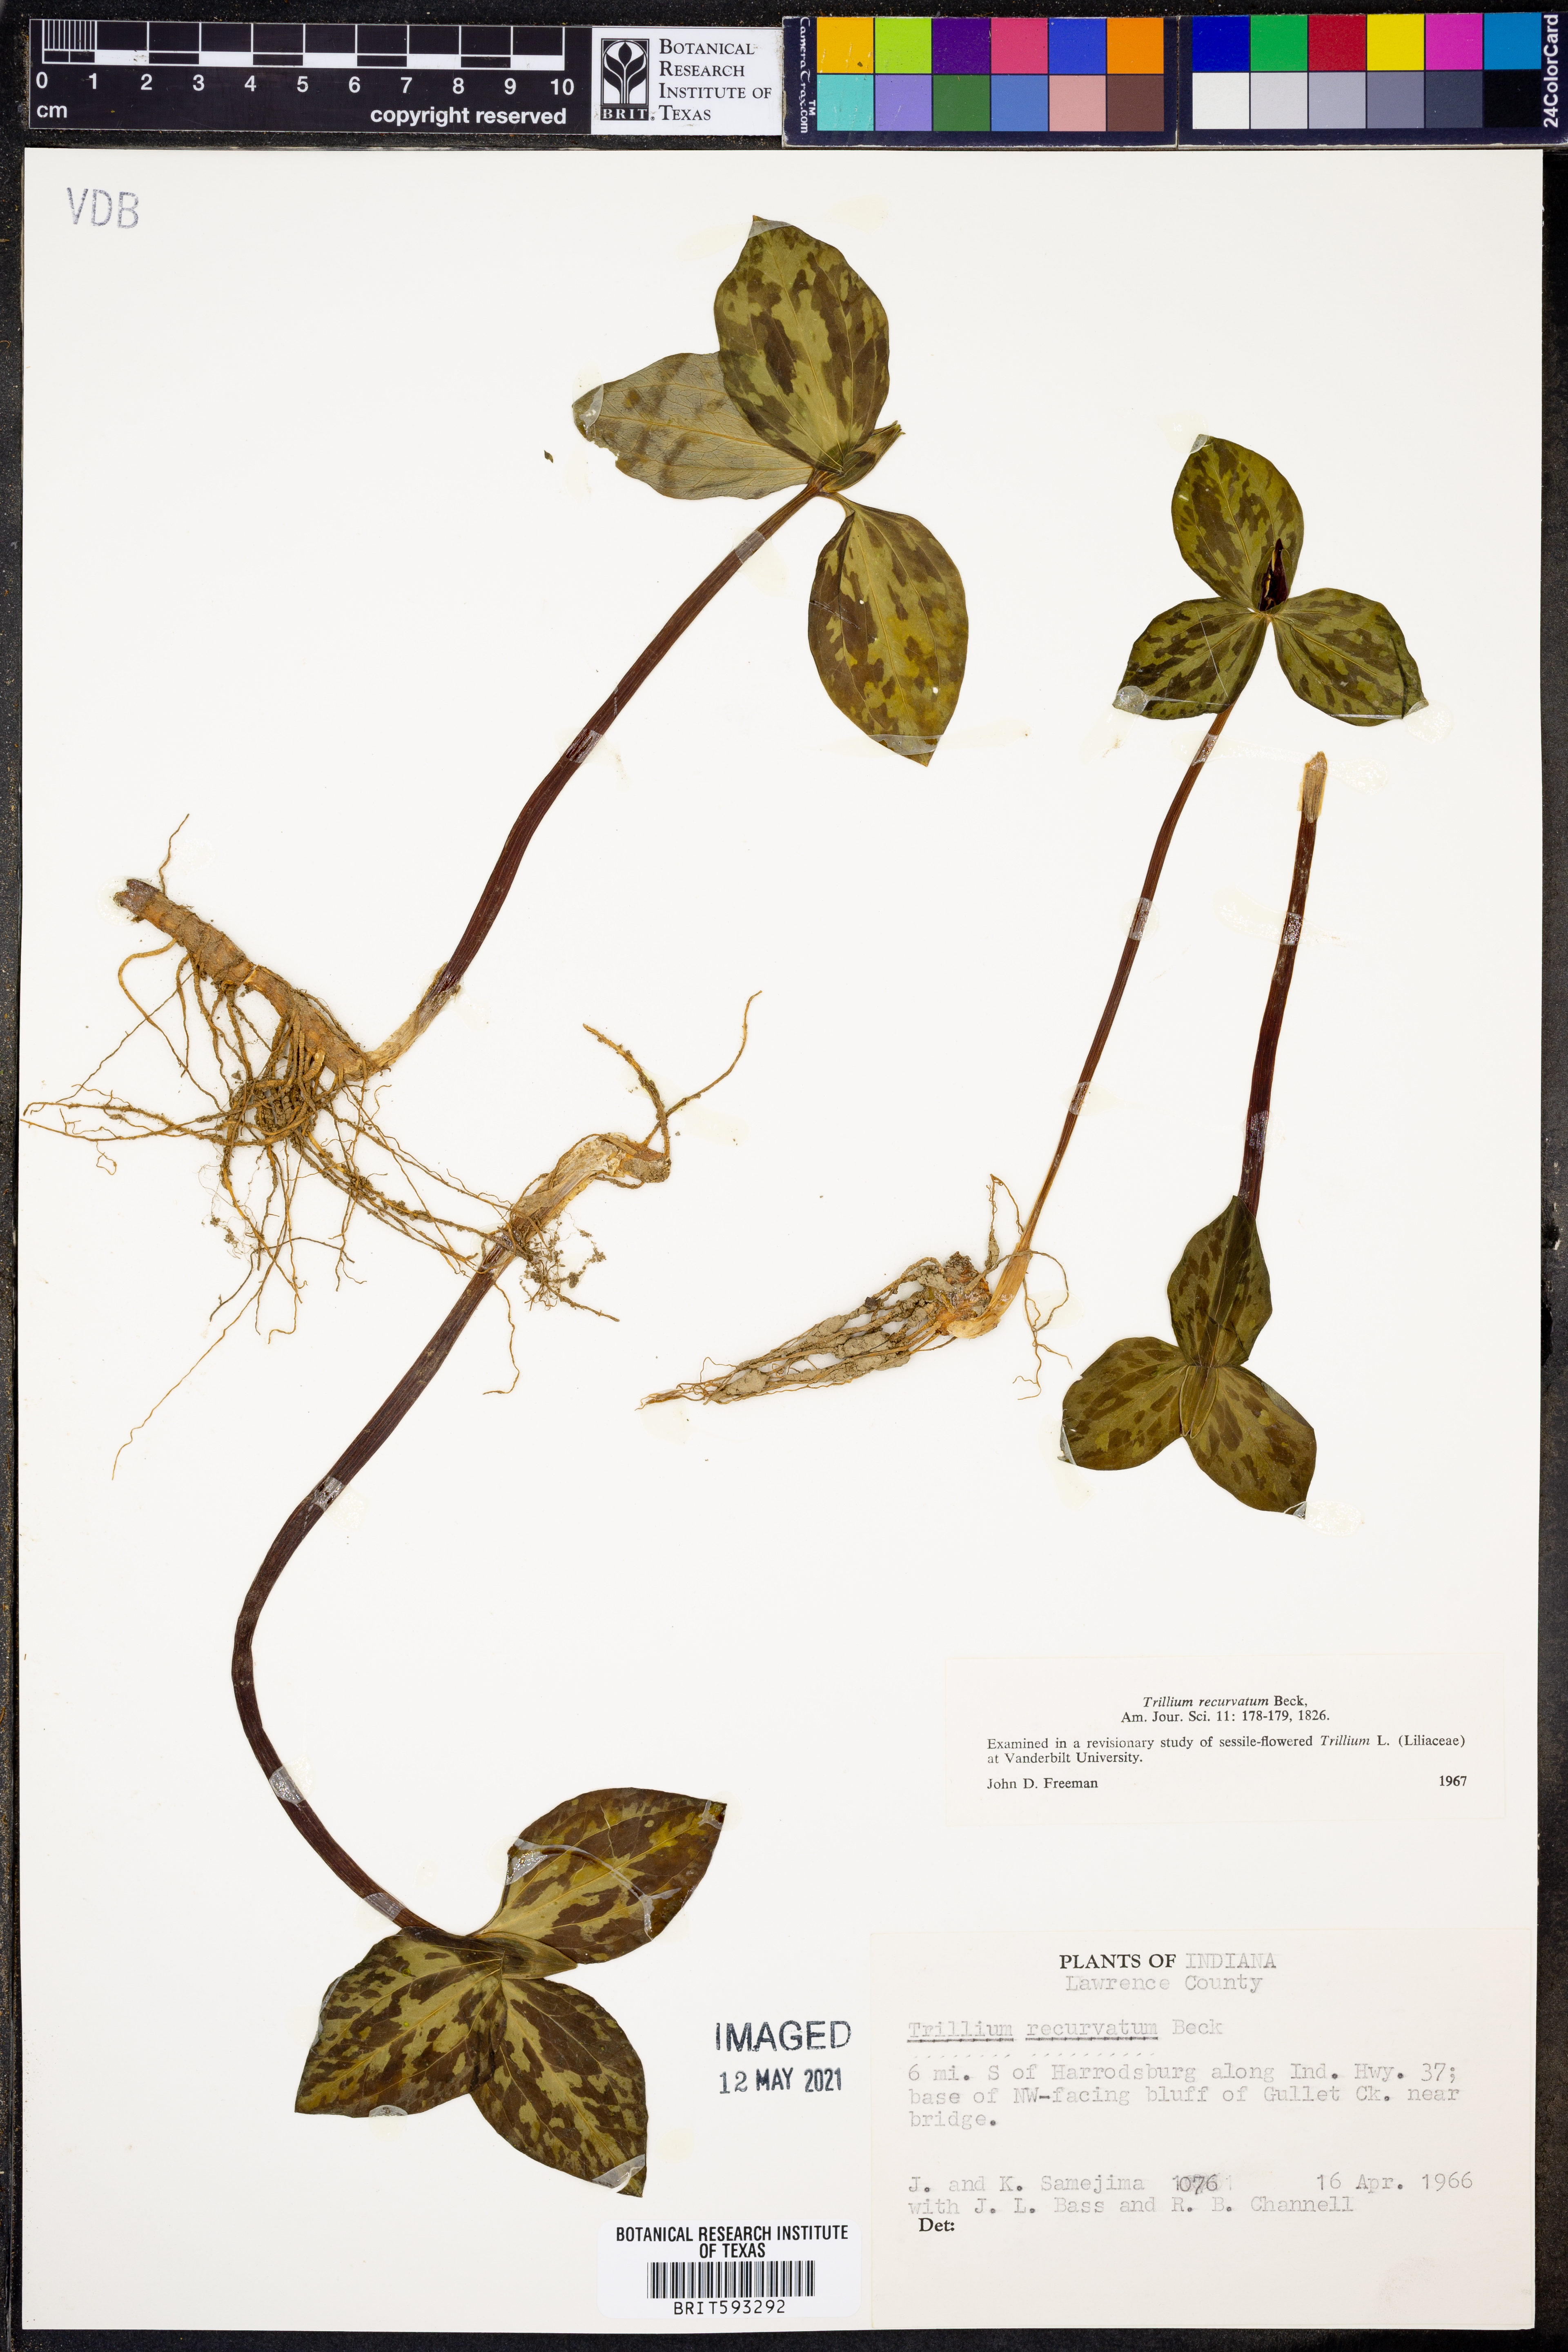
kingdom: Plantae
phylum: Tracheophyta
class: Liliopsida
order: Liliales
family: Melanthiaceae
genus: Trillium
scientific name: Trillium recurvatum
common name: Bloody butcher
